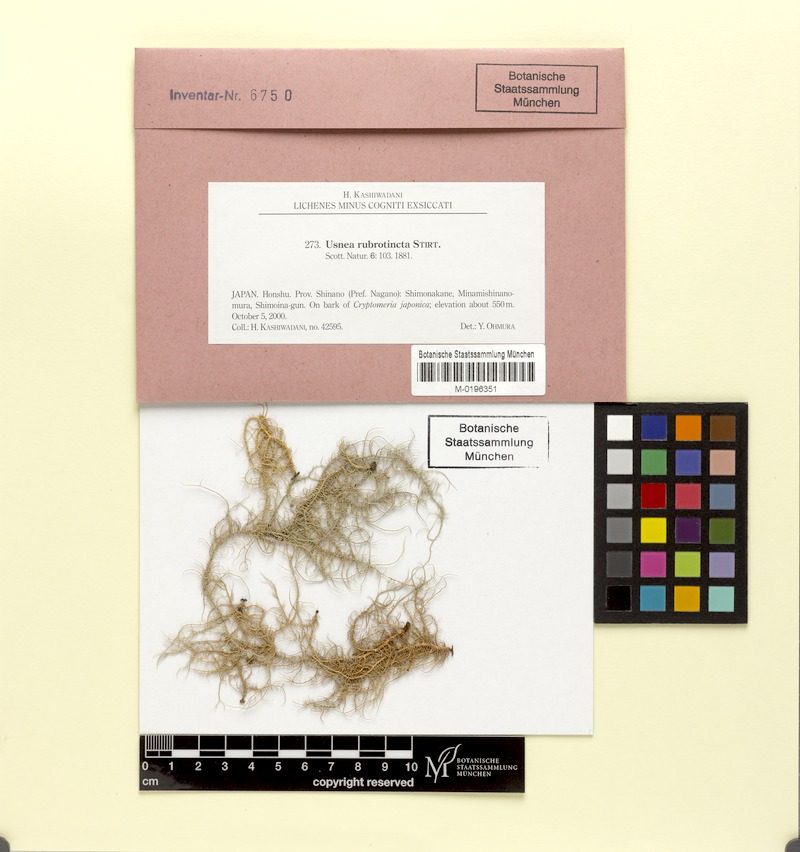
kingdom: Fungi
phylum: Ascomycota
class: Lecanoromycetes
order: Lecanorales
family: Parmeliaceae
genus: Usnea
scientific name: Usnea rubrotincta
